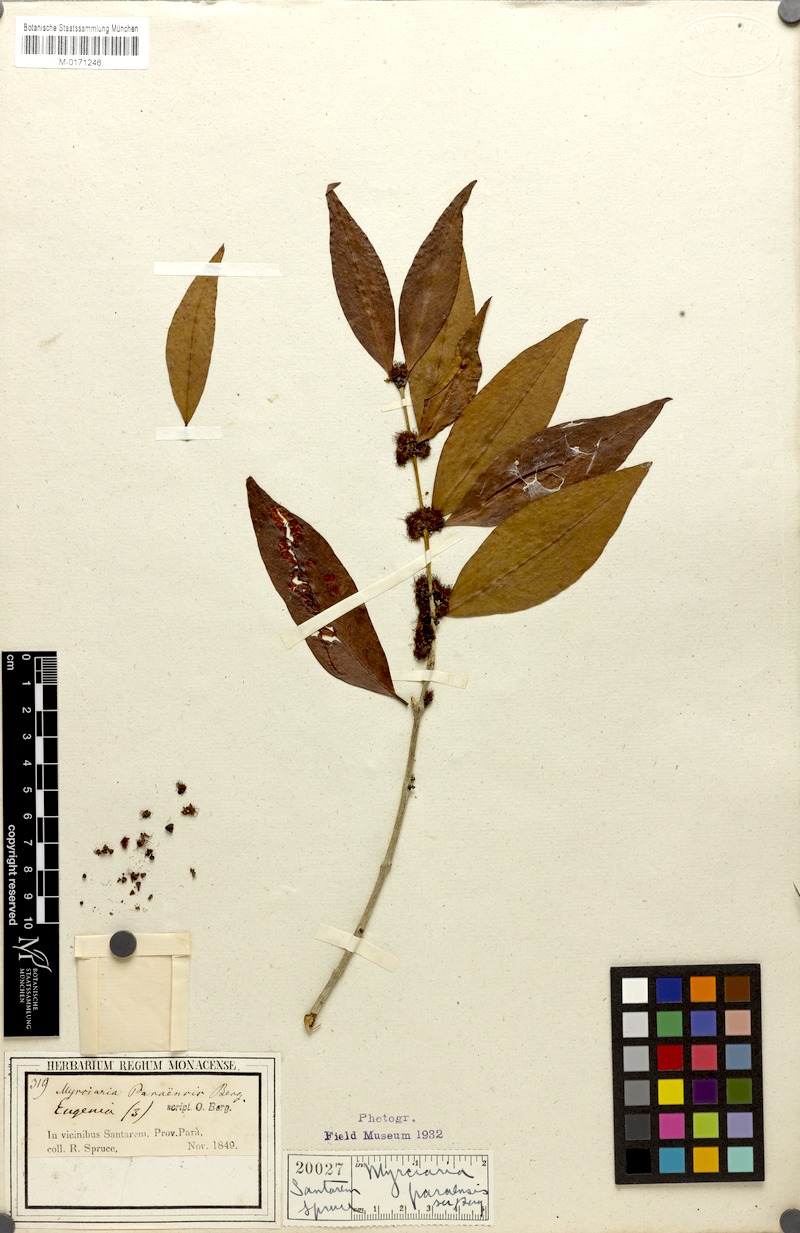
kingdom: Plantae
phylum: Tracheophyta
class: Magnoliopsida
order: Myrtales
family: Myrtaceae
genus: Myrciaria
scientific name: Myrciaria dubia
